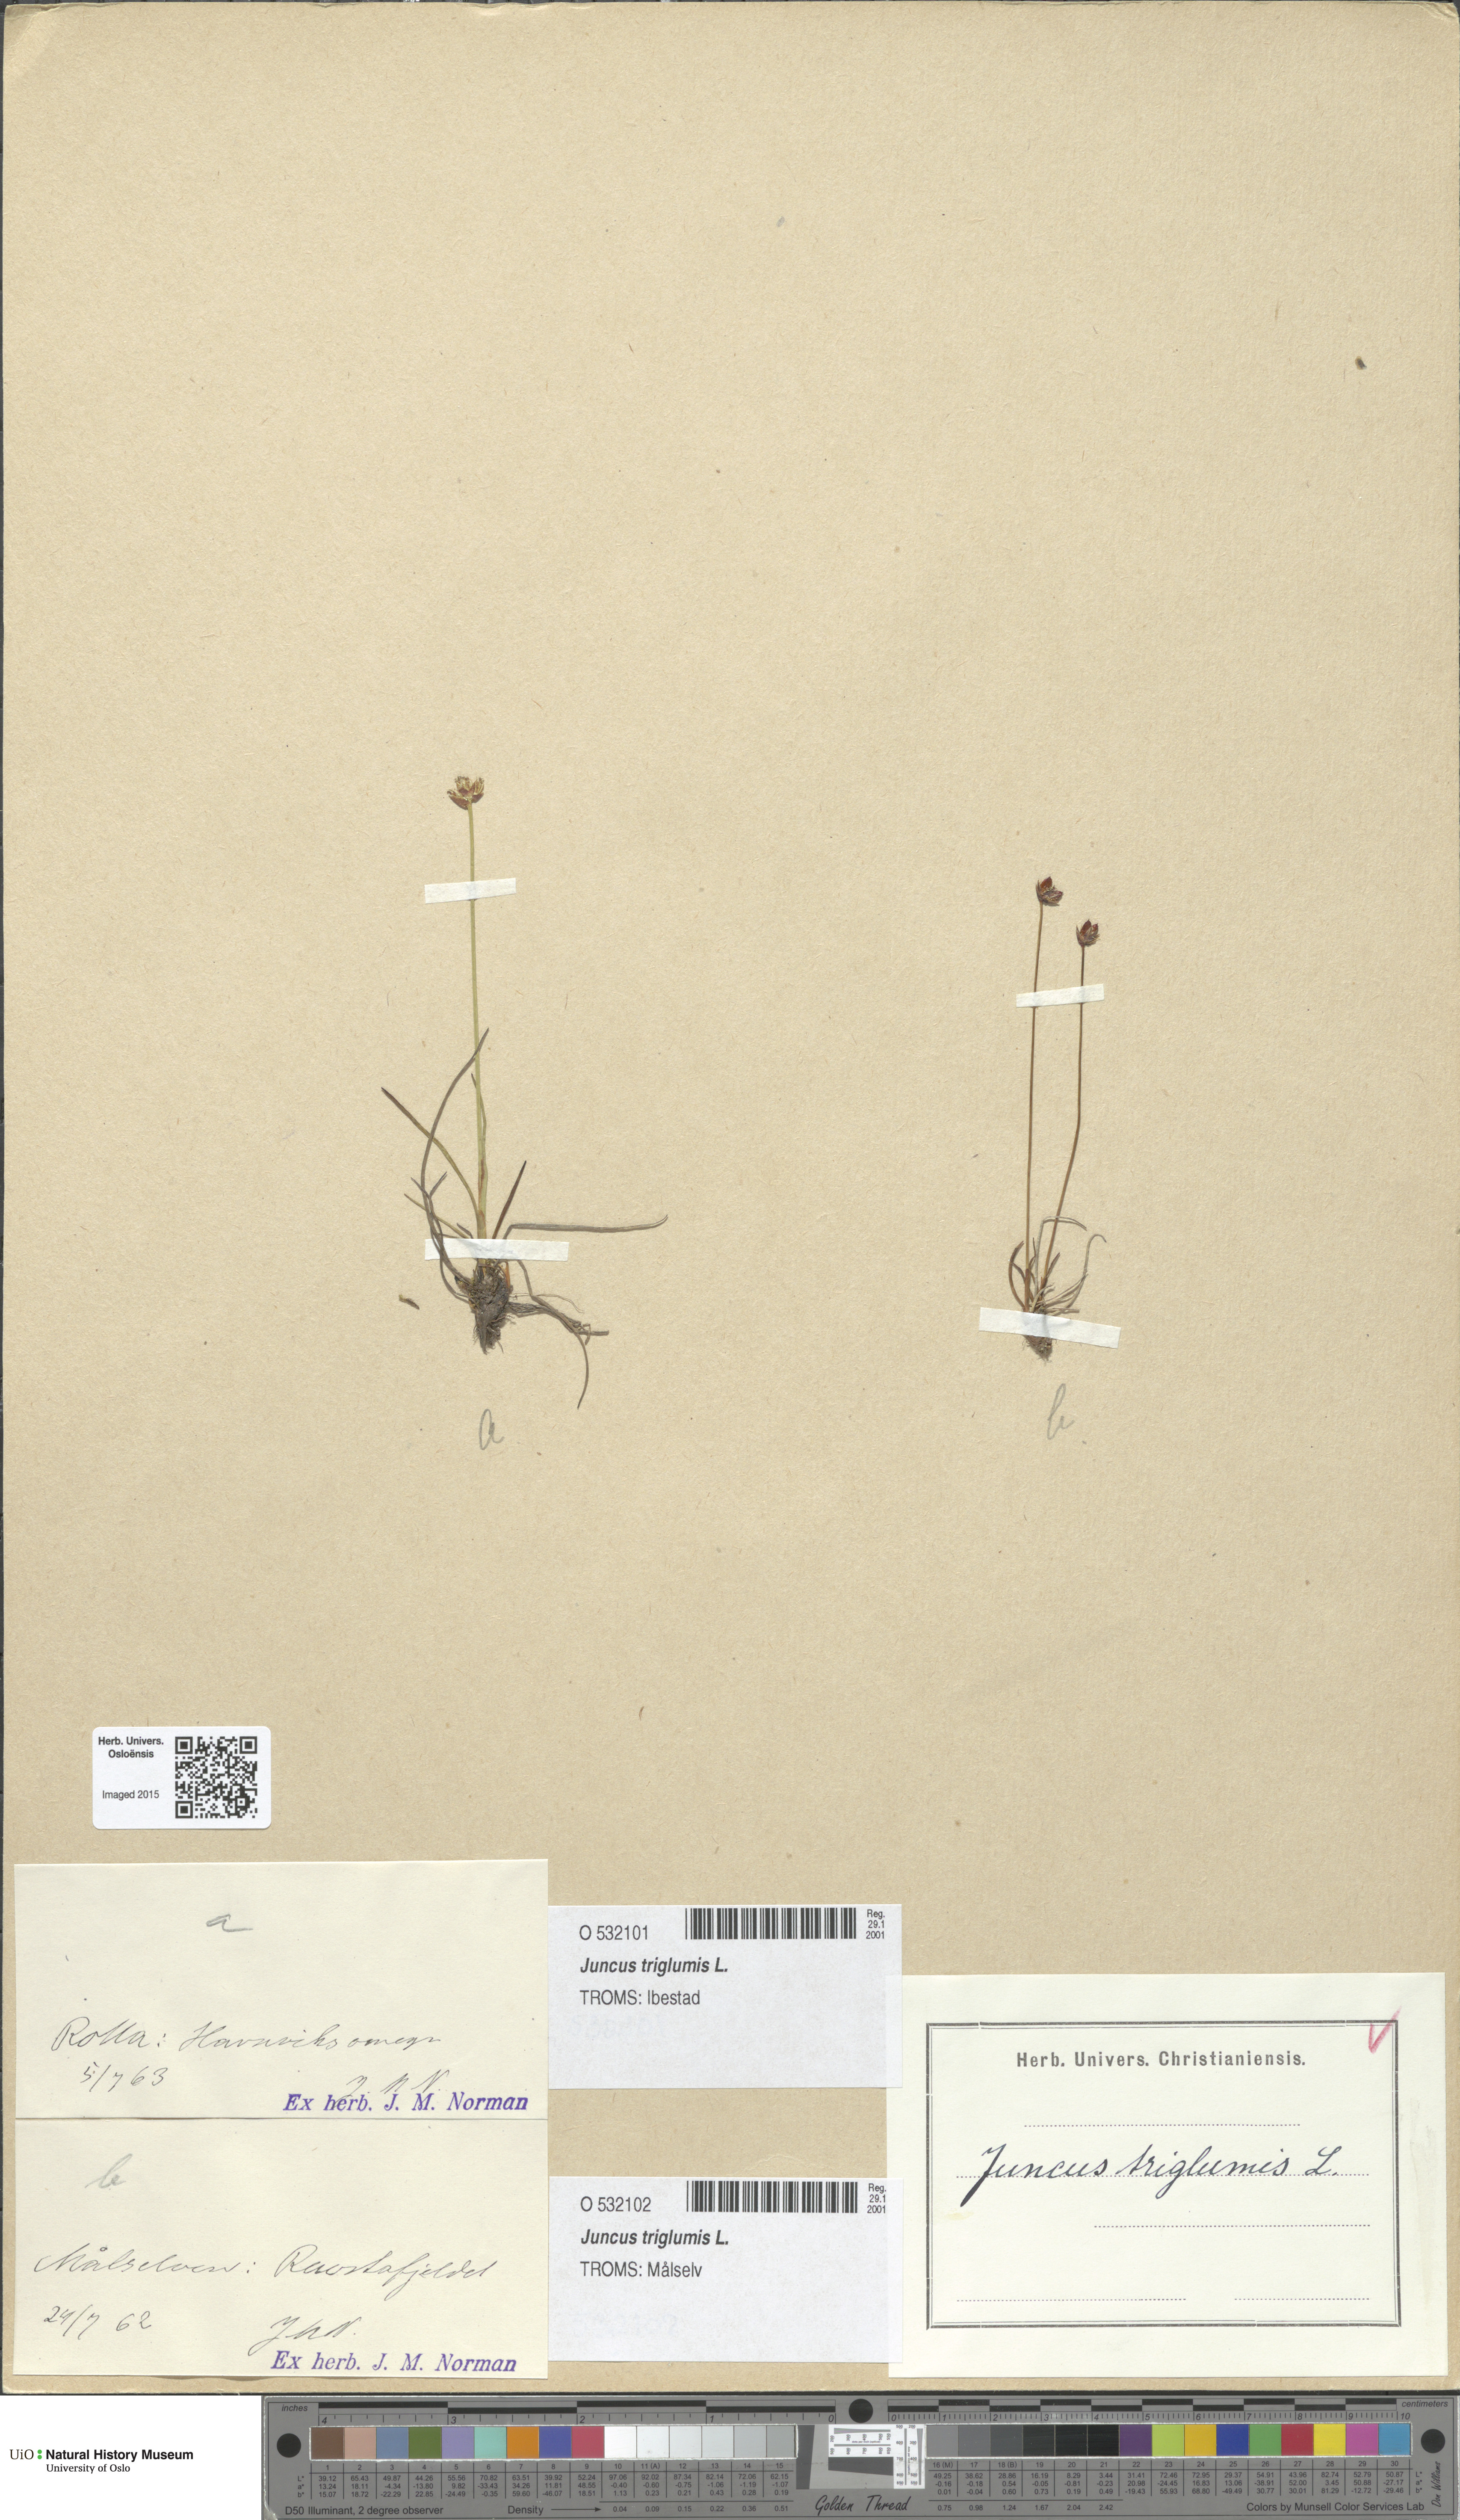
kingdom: Plantae
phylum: Tracheophyta
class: Liliopsida
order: Poales
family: Juncaceae
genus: Juncus
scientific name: Juncus triglumis
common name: Three-flowered rush
